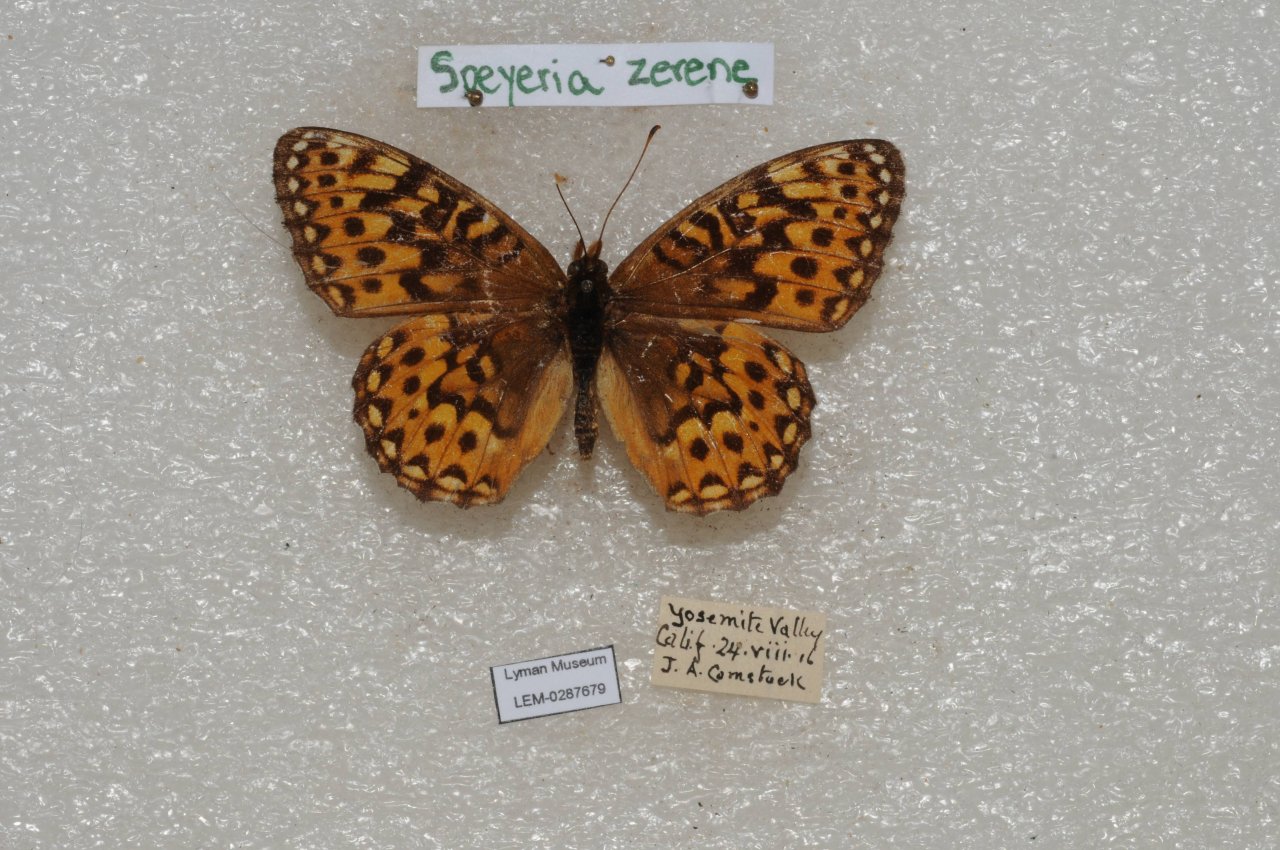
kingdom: Animalia
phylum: Arthropoda
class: Insecta
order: Lepidoptera
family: Nymphalidae
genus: Speyeria
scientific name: Speyeria zerene
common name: Zerene Fritillary
